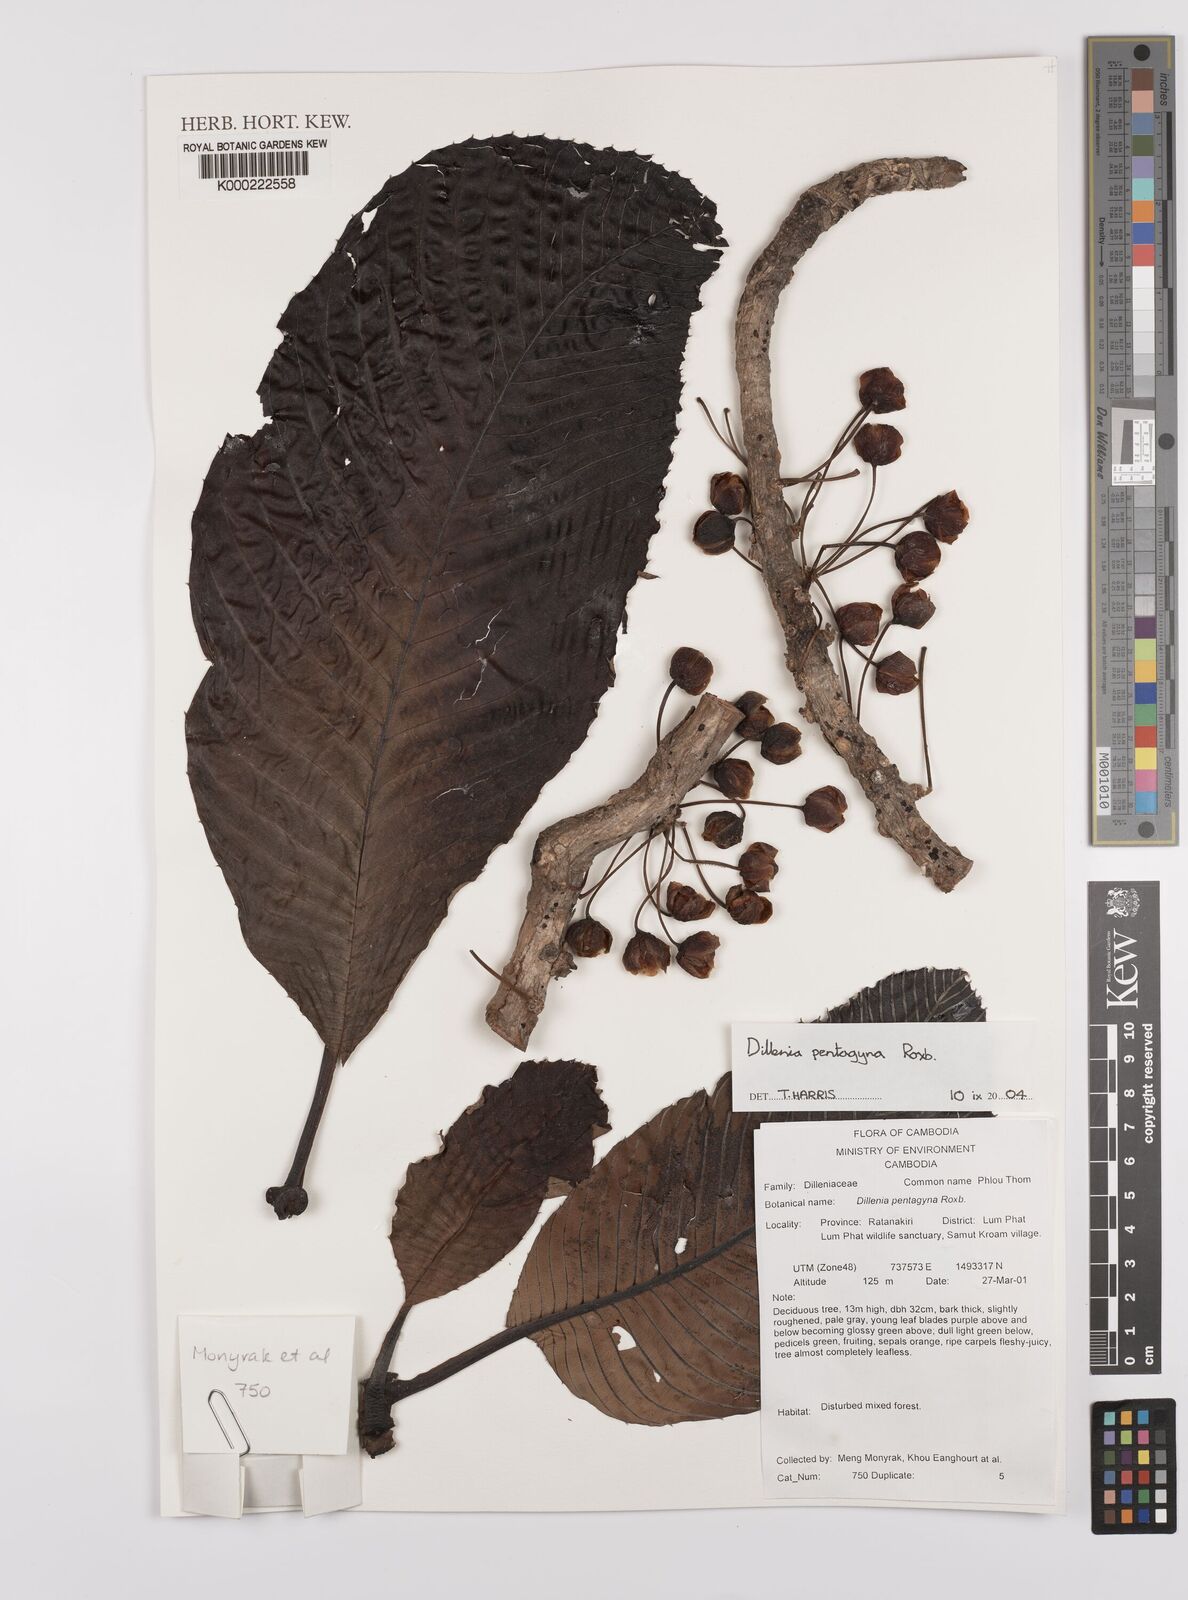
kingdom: Plantae
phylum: Tracheophyta
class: Magnoliopsida
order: Dilleniales
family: Dilleniaceae
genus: Dillenia
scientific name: Dillenia pentagyna
